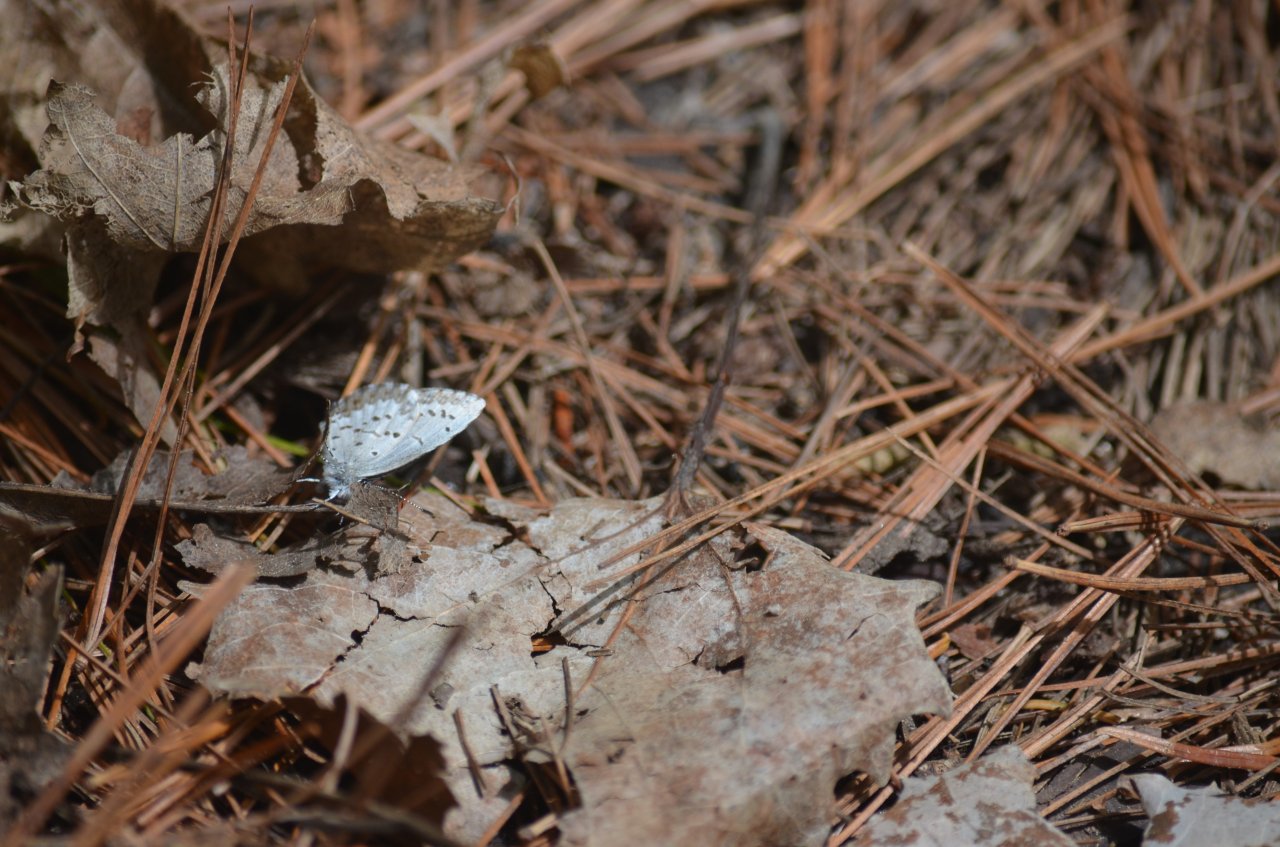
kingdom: Animalia
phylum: Arthropoda
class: Insecta
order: Lepidoptera
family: Lycaenidae
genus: Celastrina
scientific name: Celastrina
